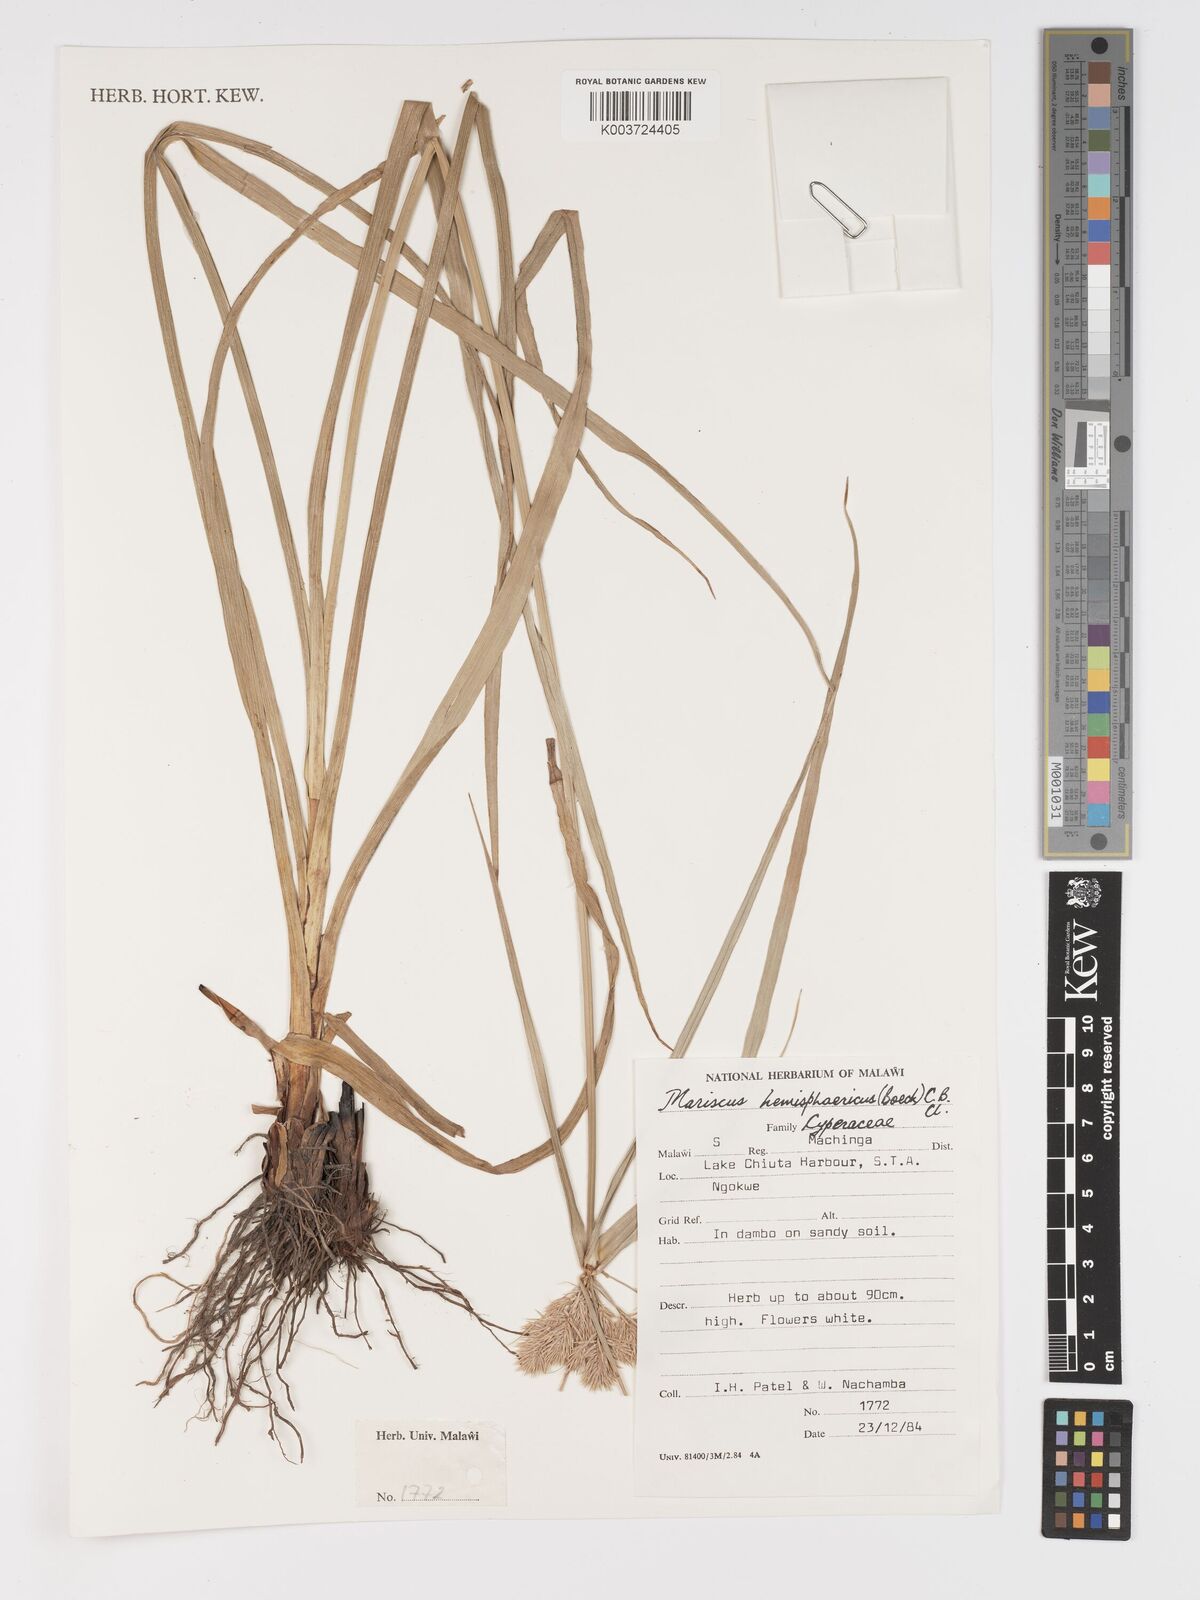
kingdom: Plantae
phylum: Tracheophyta
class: Liliopsida
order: Poales
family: Cyperaceae
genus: Cyperus
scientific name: Cyperus hemisphaericus
